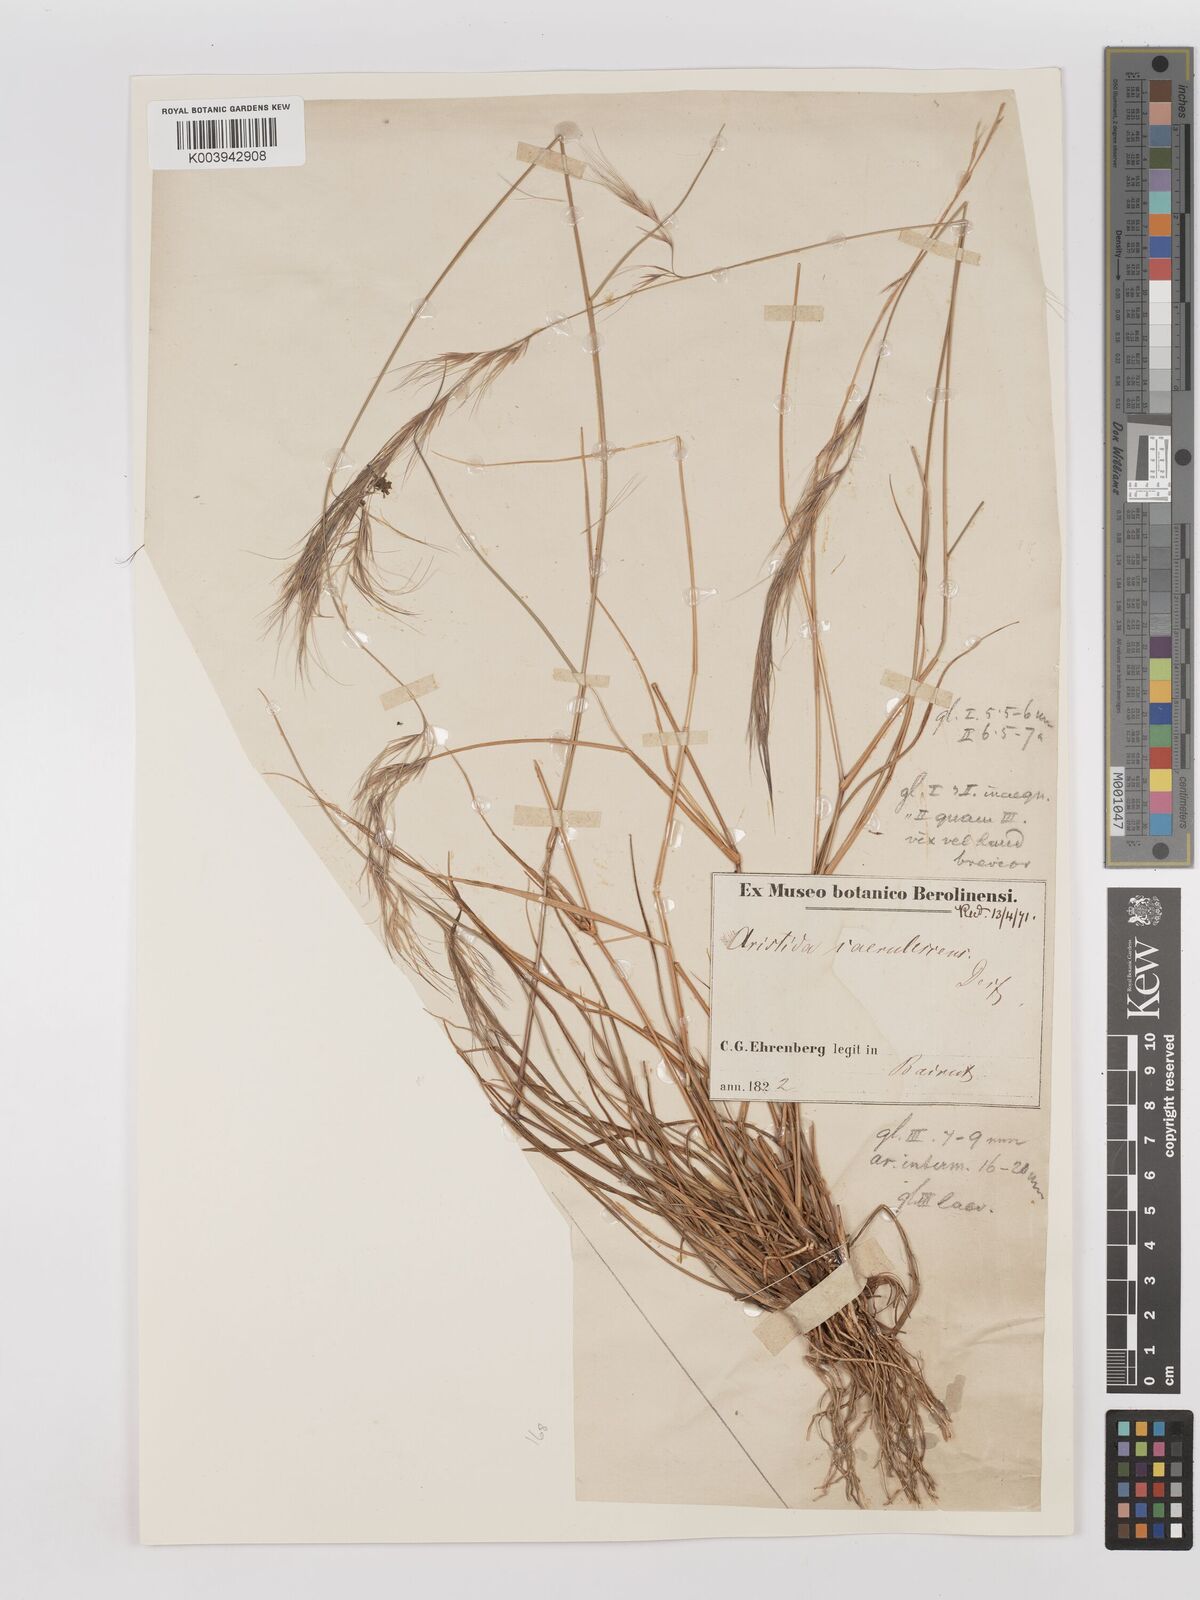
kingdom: Plantae
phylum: Tracheophyta
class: Liliopsida
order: Poales
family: Poaceae
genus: Aristida
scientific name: Aristida adscensionis
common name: Sixweeks threeawn
